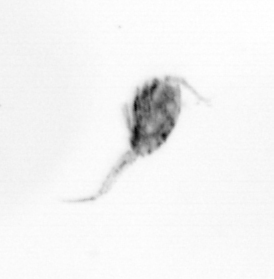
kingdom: Animalia
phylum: Arthropoda
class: Copepoda
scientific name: Copepoda
